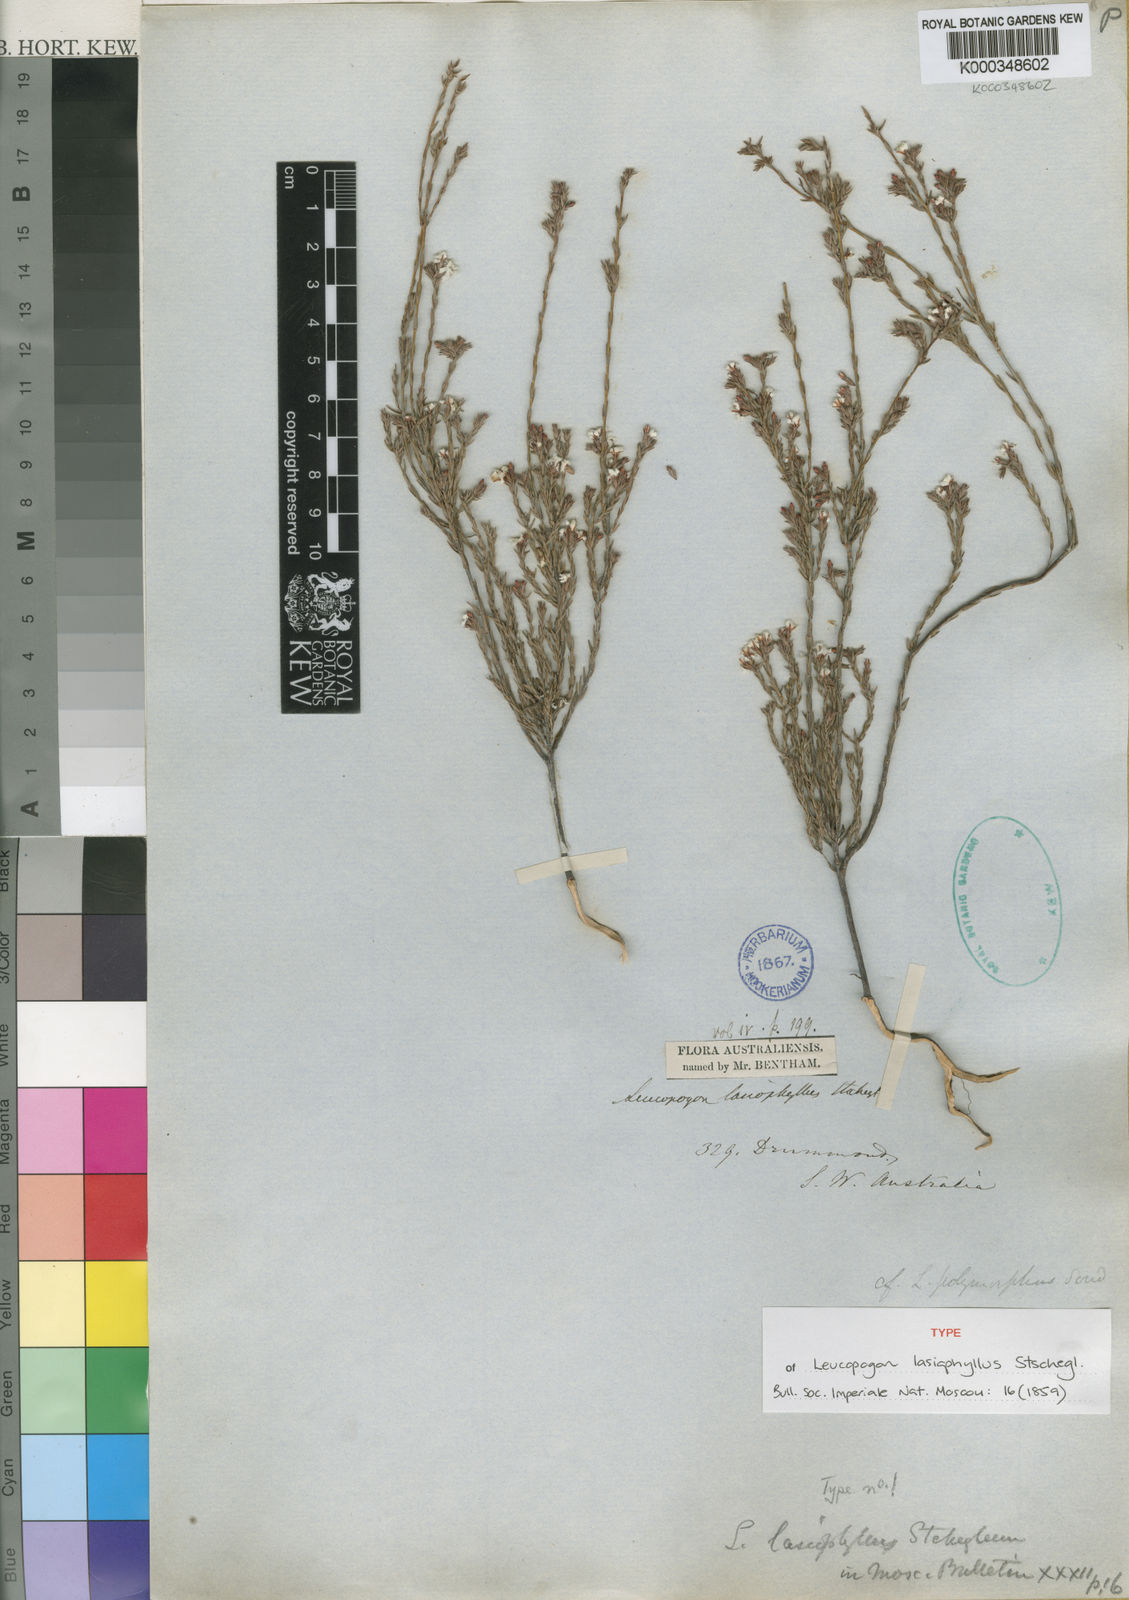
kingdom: Plantae
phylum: Tracheophyta
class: Magnoliopsida
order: Ericales
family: Ericaceae
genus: Leucopogon
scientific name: Leucopogon lasiophyllus
